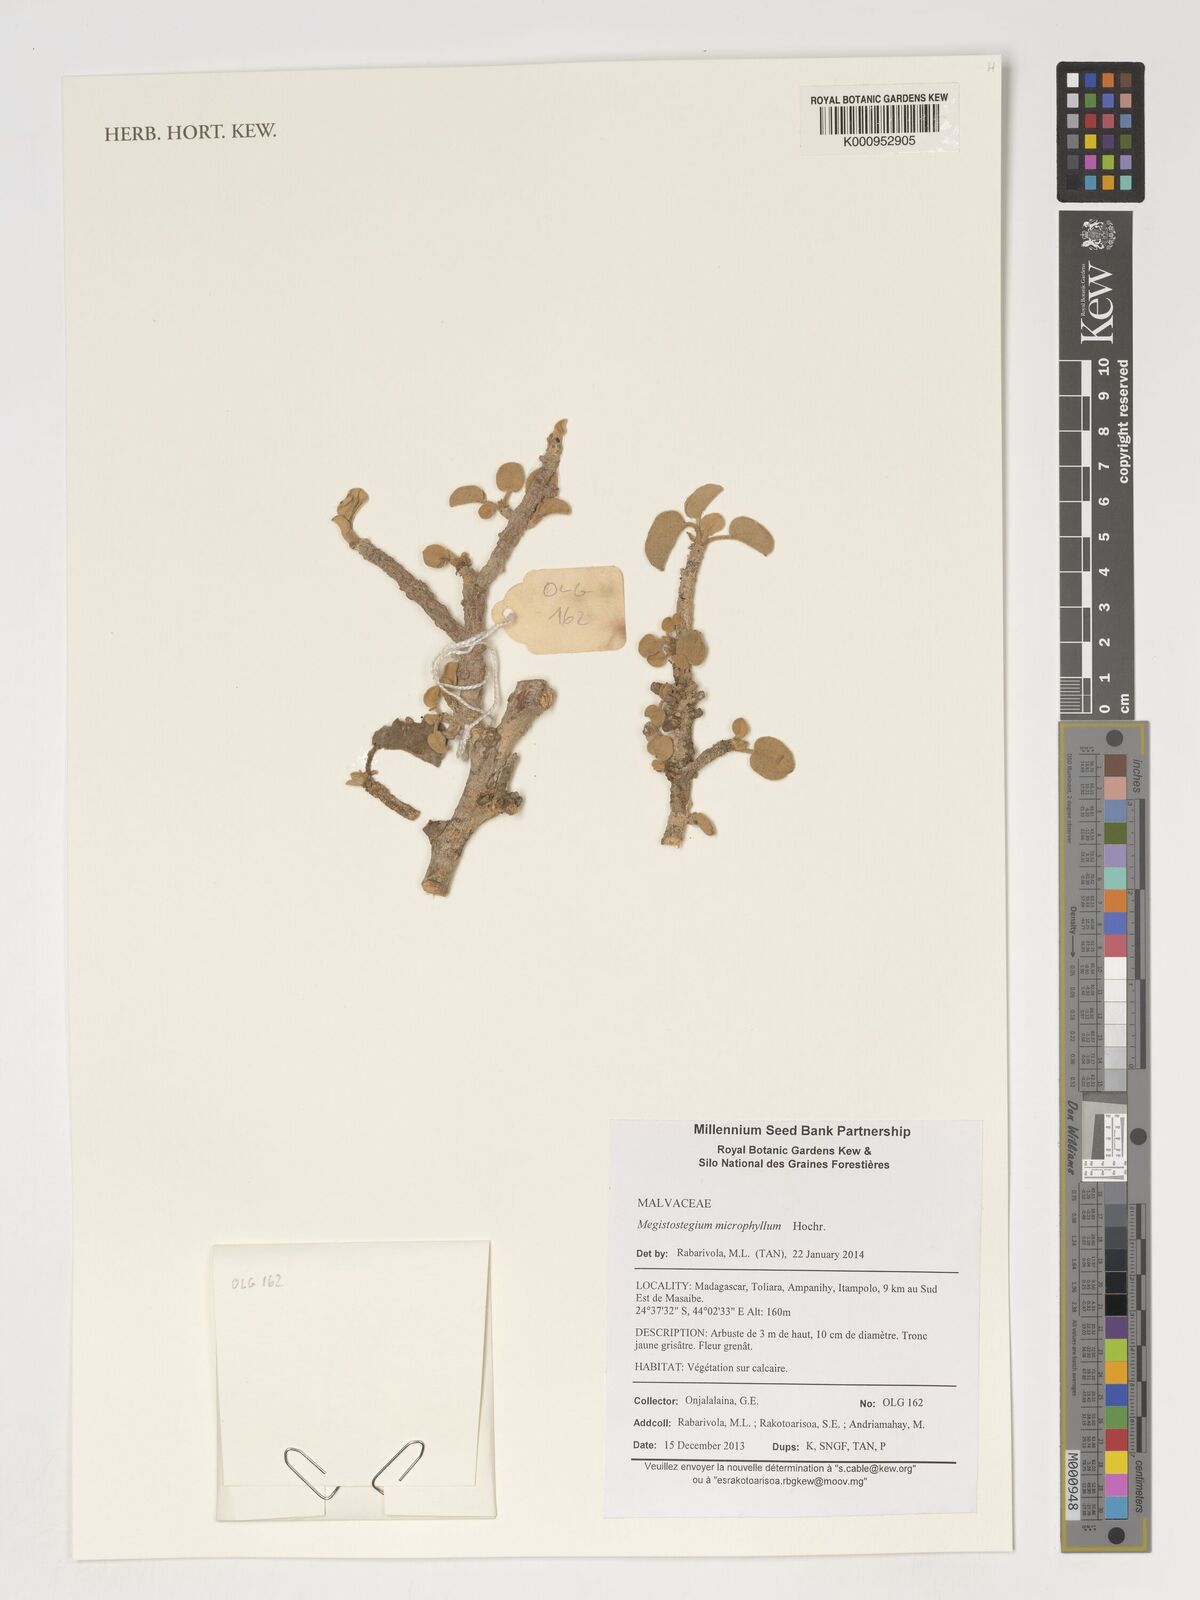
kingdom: Plantae
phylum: Tracheophyta
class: Magnoliopsida
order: Malvales
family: Malvaceae
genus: Megistostegium
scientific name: Megistostegium microphyllum
